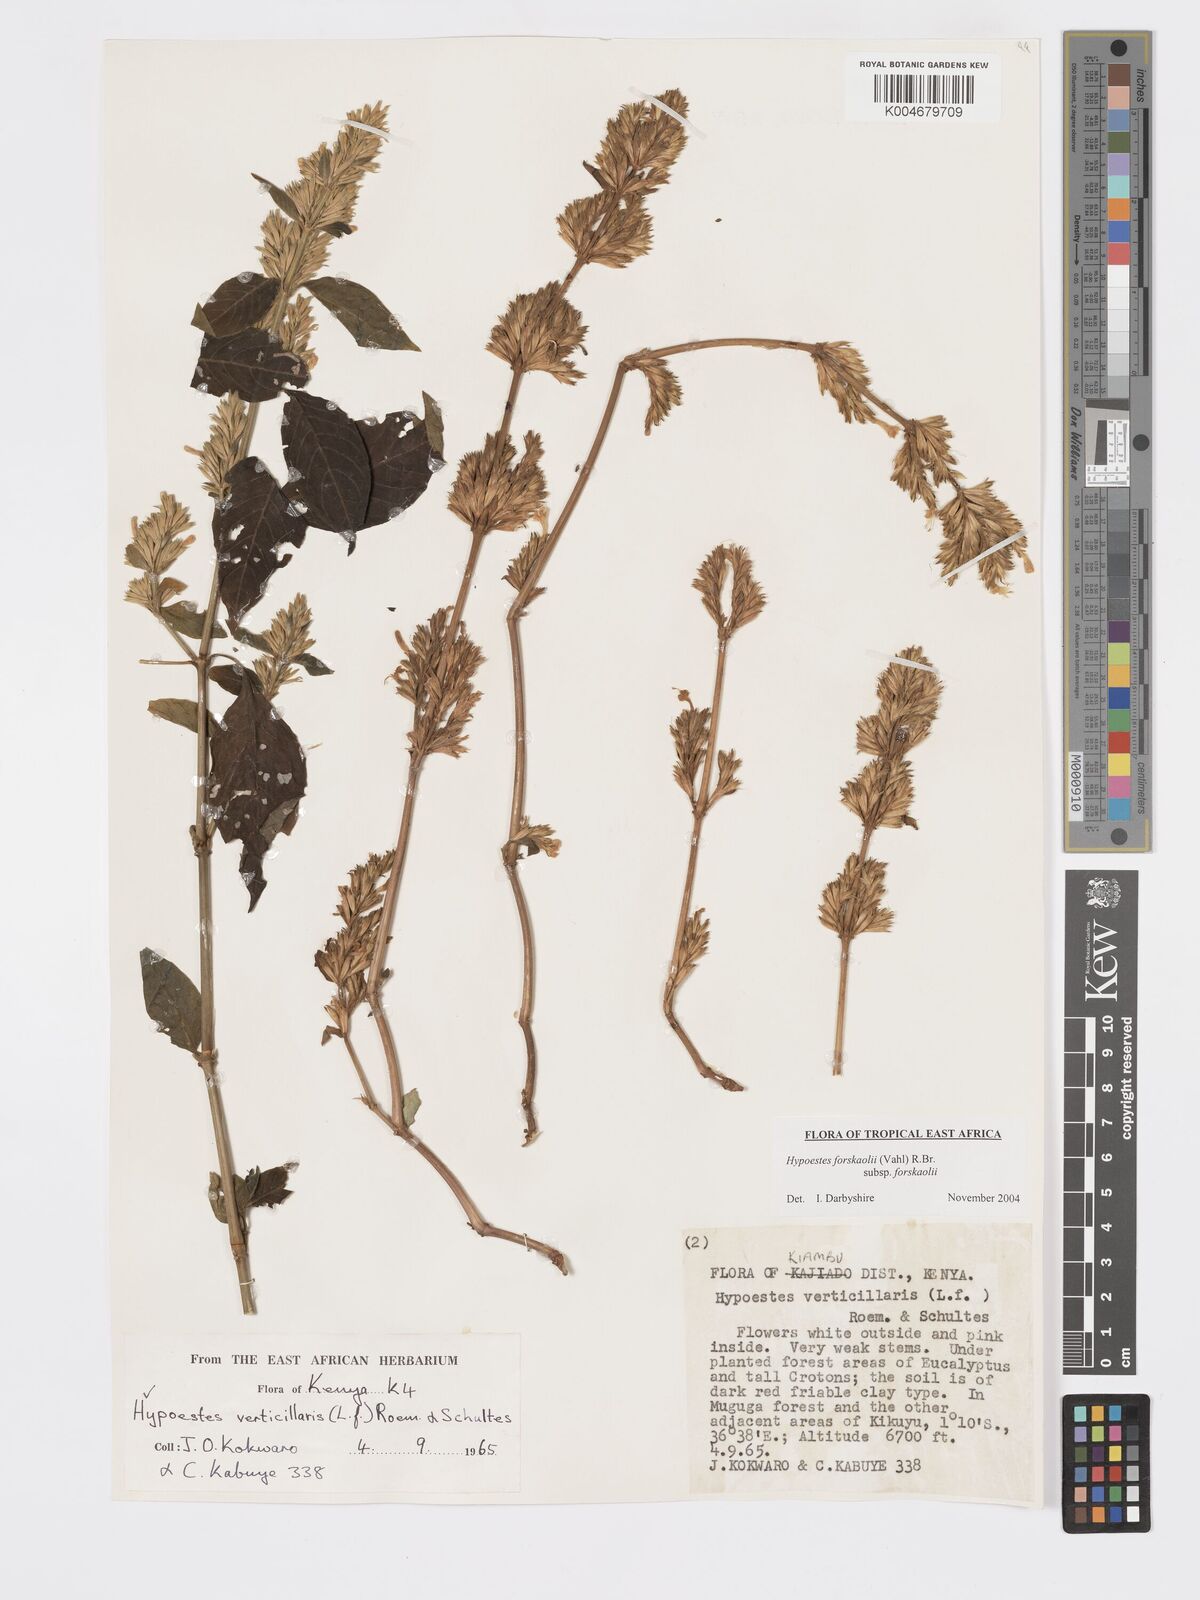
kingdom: Plantae
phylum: Tracheophyta
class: Magnoliopsida
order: Lamiales
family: Acanthaceae
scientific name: Acanthaceae
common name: Acanthaceae
